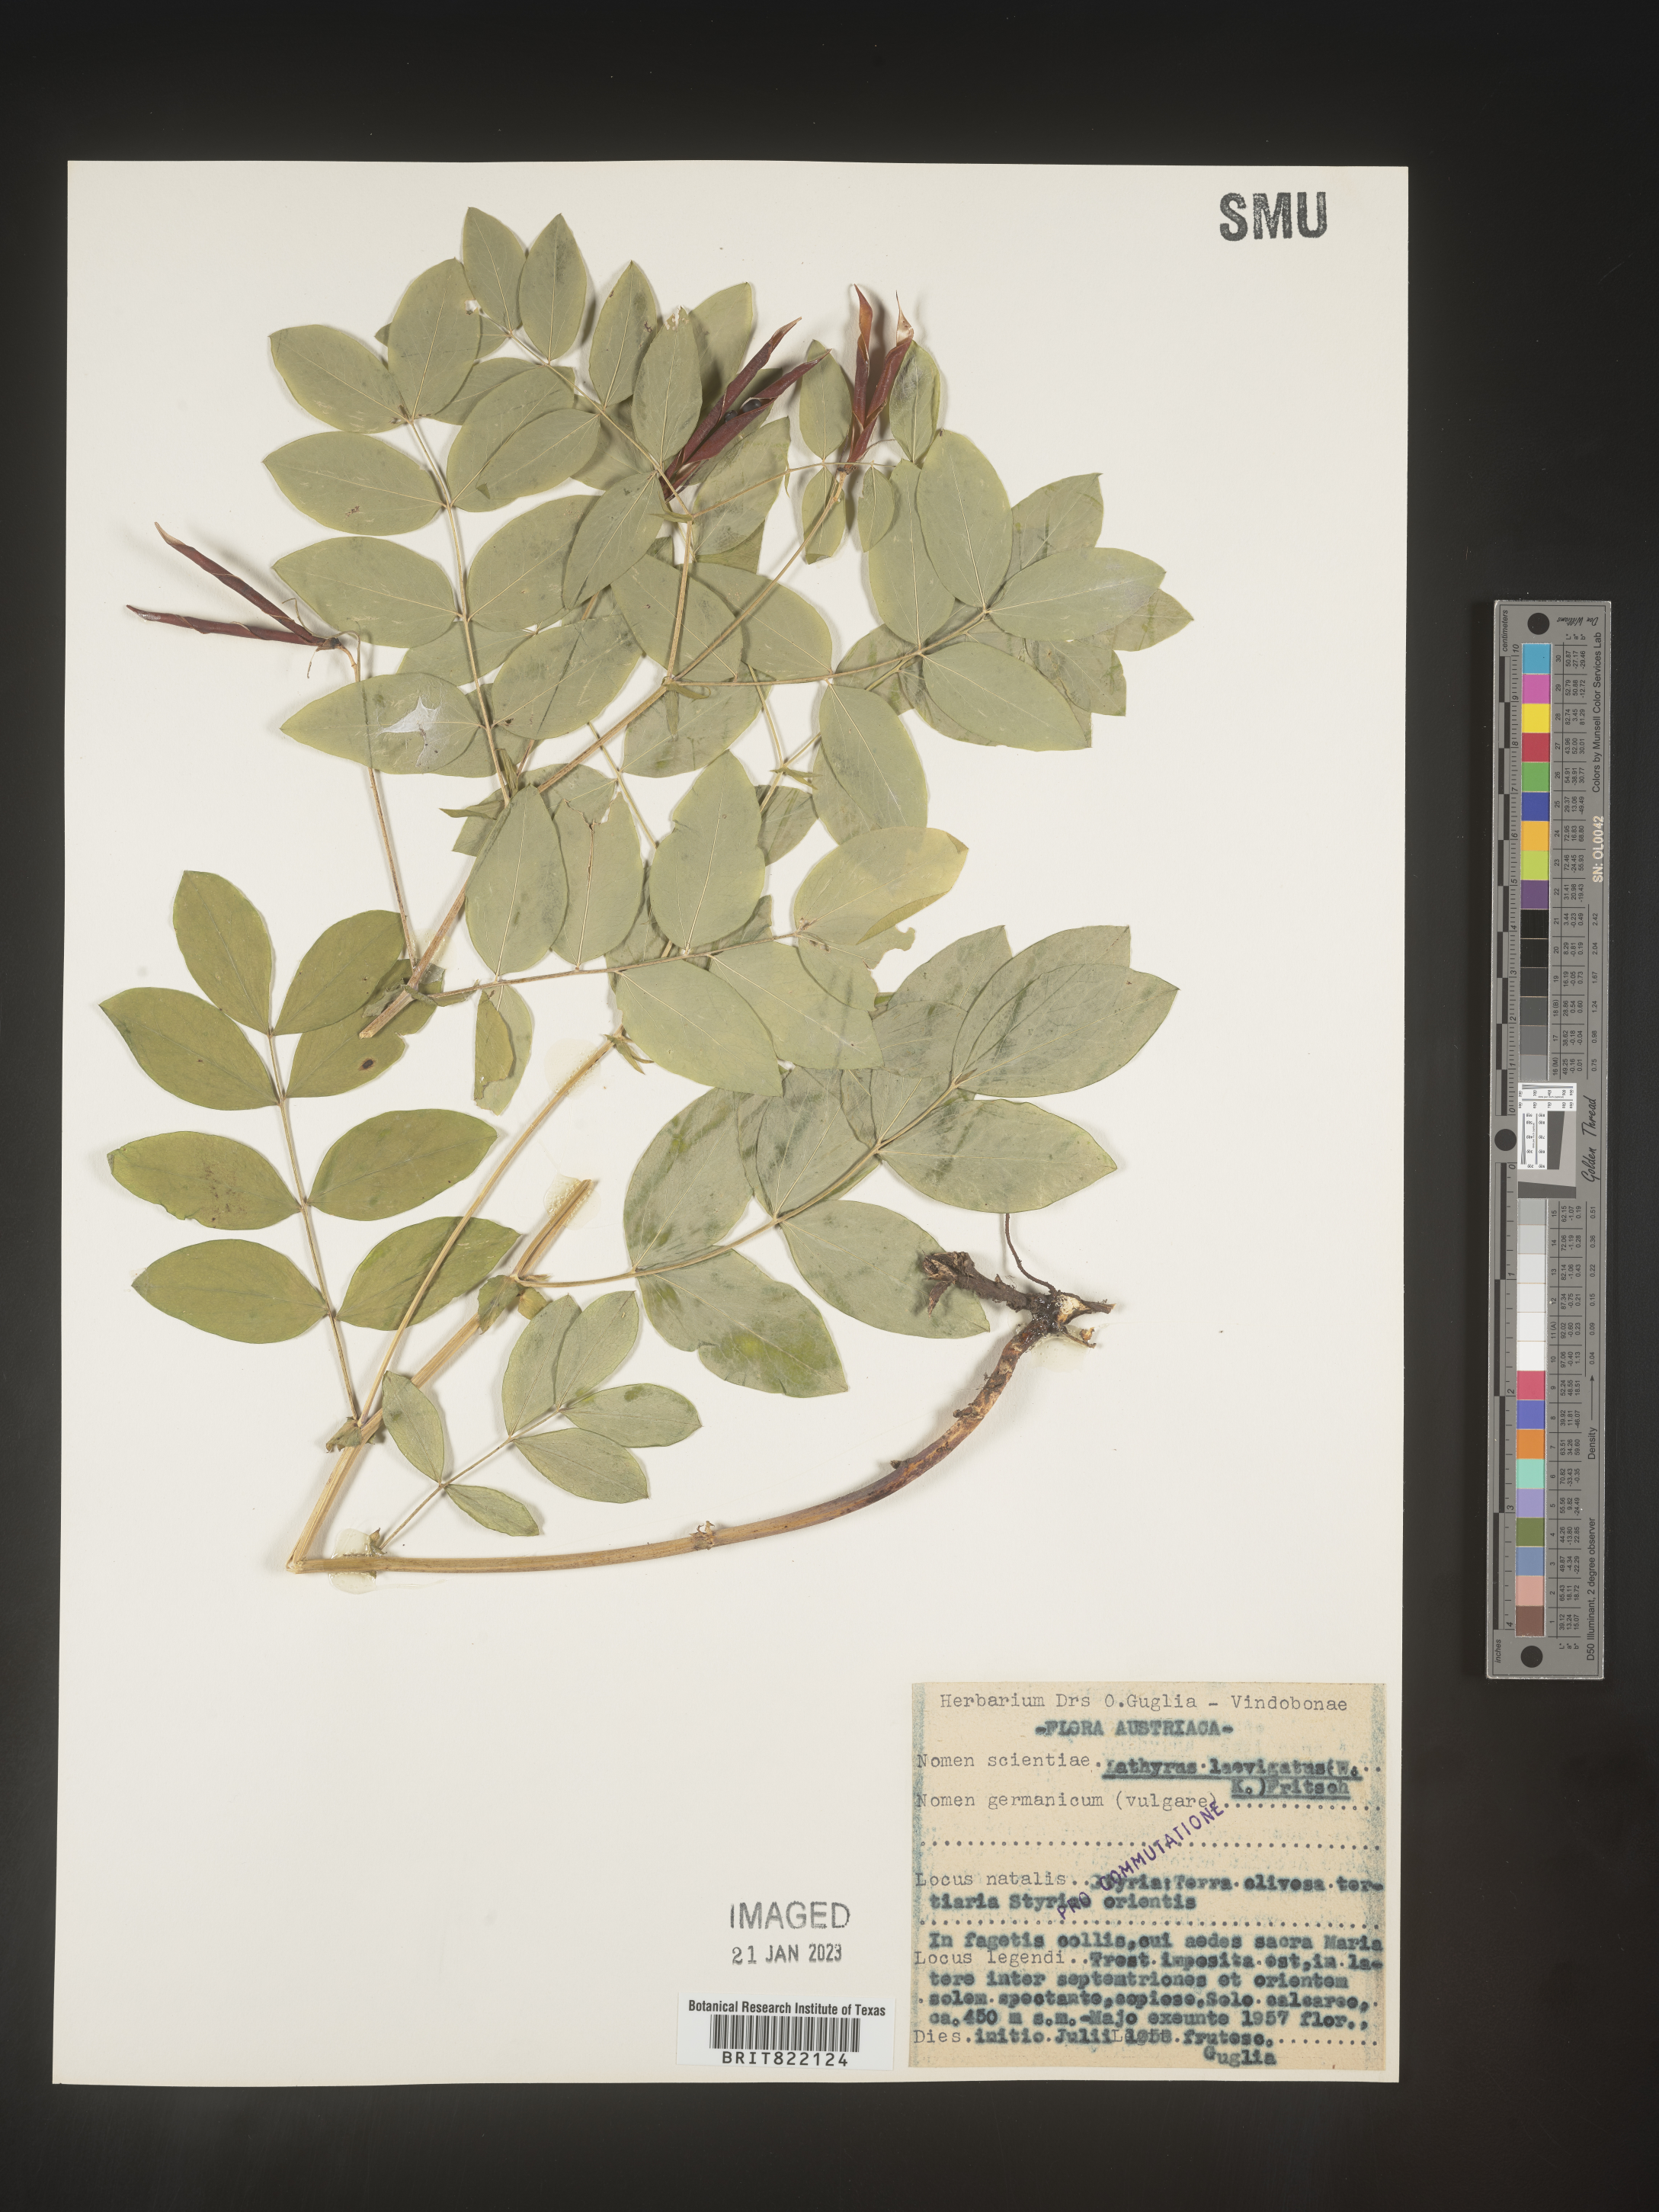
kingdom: Plantae
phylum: Tracheophyta
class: Magnoliopsida
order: Fabales
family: Fabaceae
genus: Lathyrus
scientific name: Lathyrus
